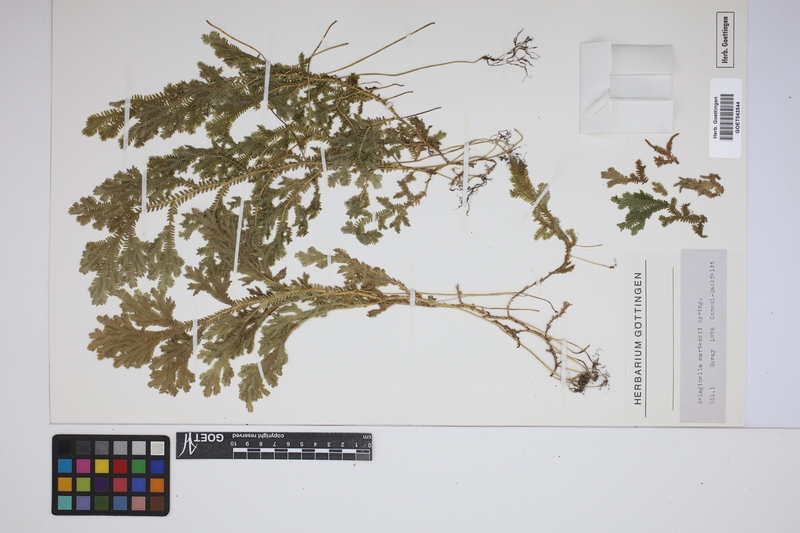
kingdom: Plantae
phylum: Tracheophyta
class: Lycopodiopsida
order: Selaginellales
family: Selaginellaceae
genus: Selaginella
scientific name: Selaginella martensii
